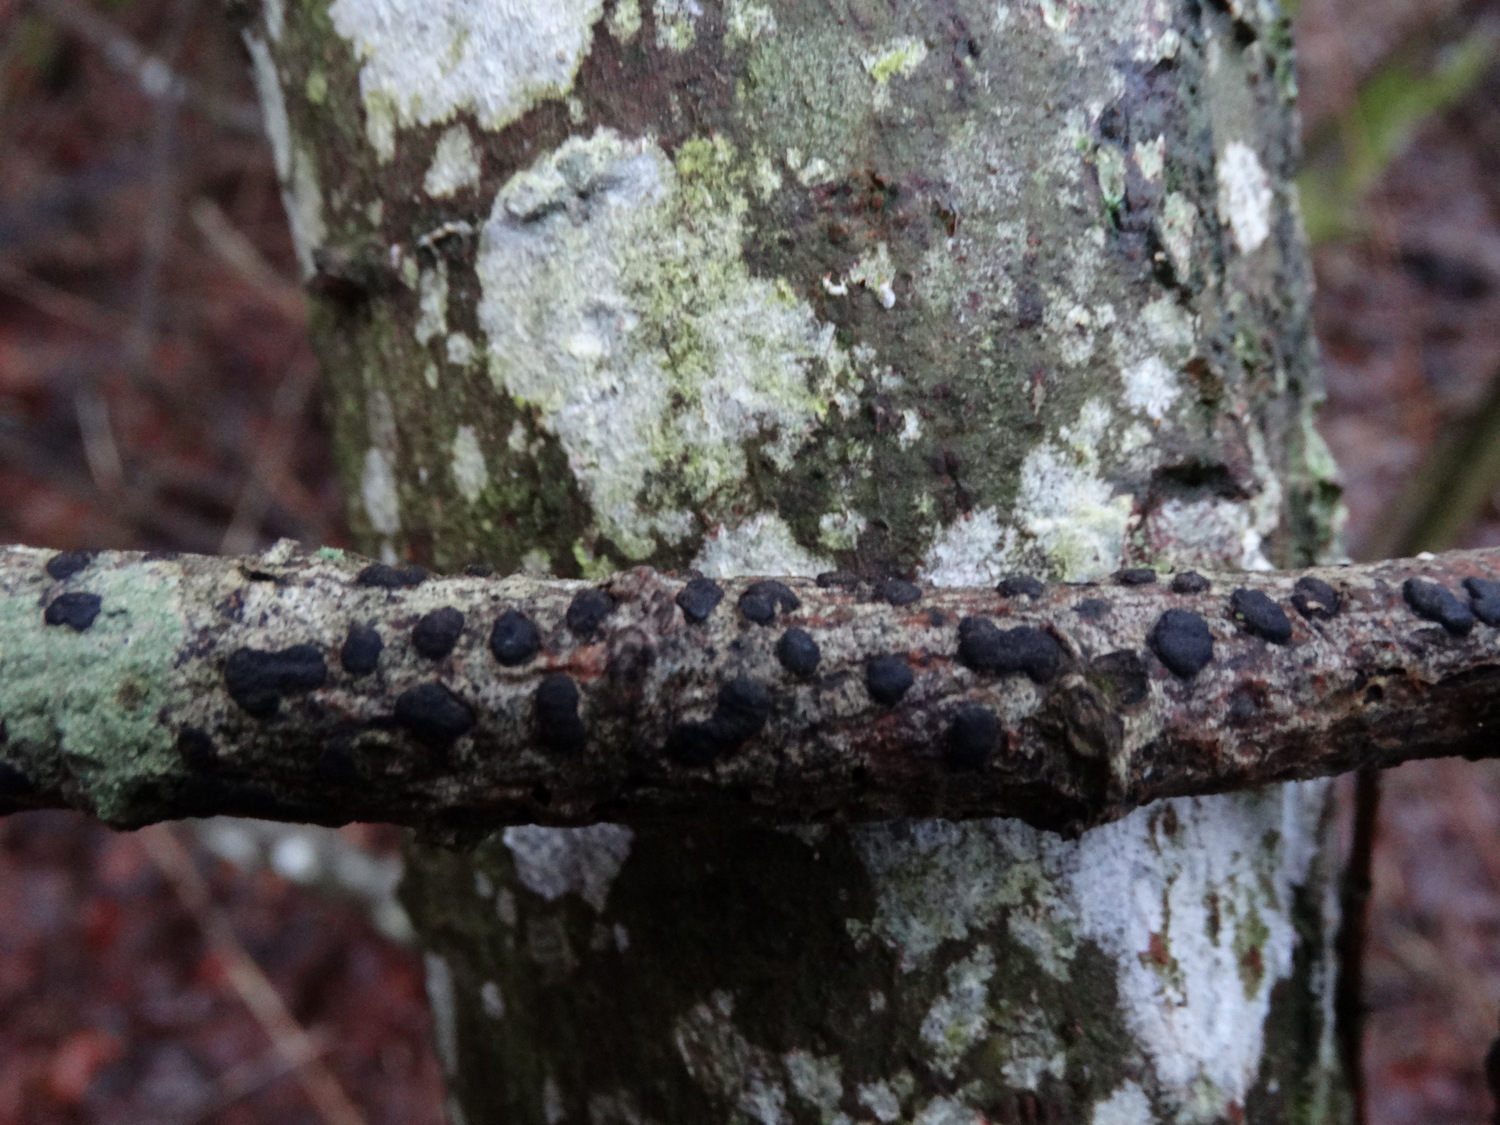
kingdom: Fungi
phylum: Ascomycota
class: Sordariomycetes
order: Xylariales
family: Diatrypaceae
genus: Diatrype
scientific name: Diatrype bullata
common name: pile-kulskorpe
